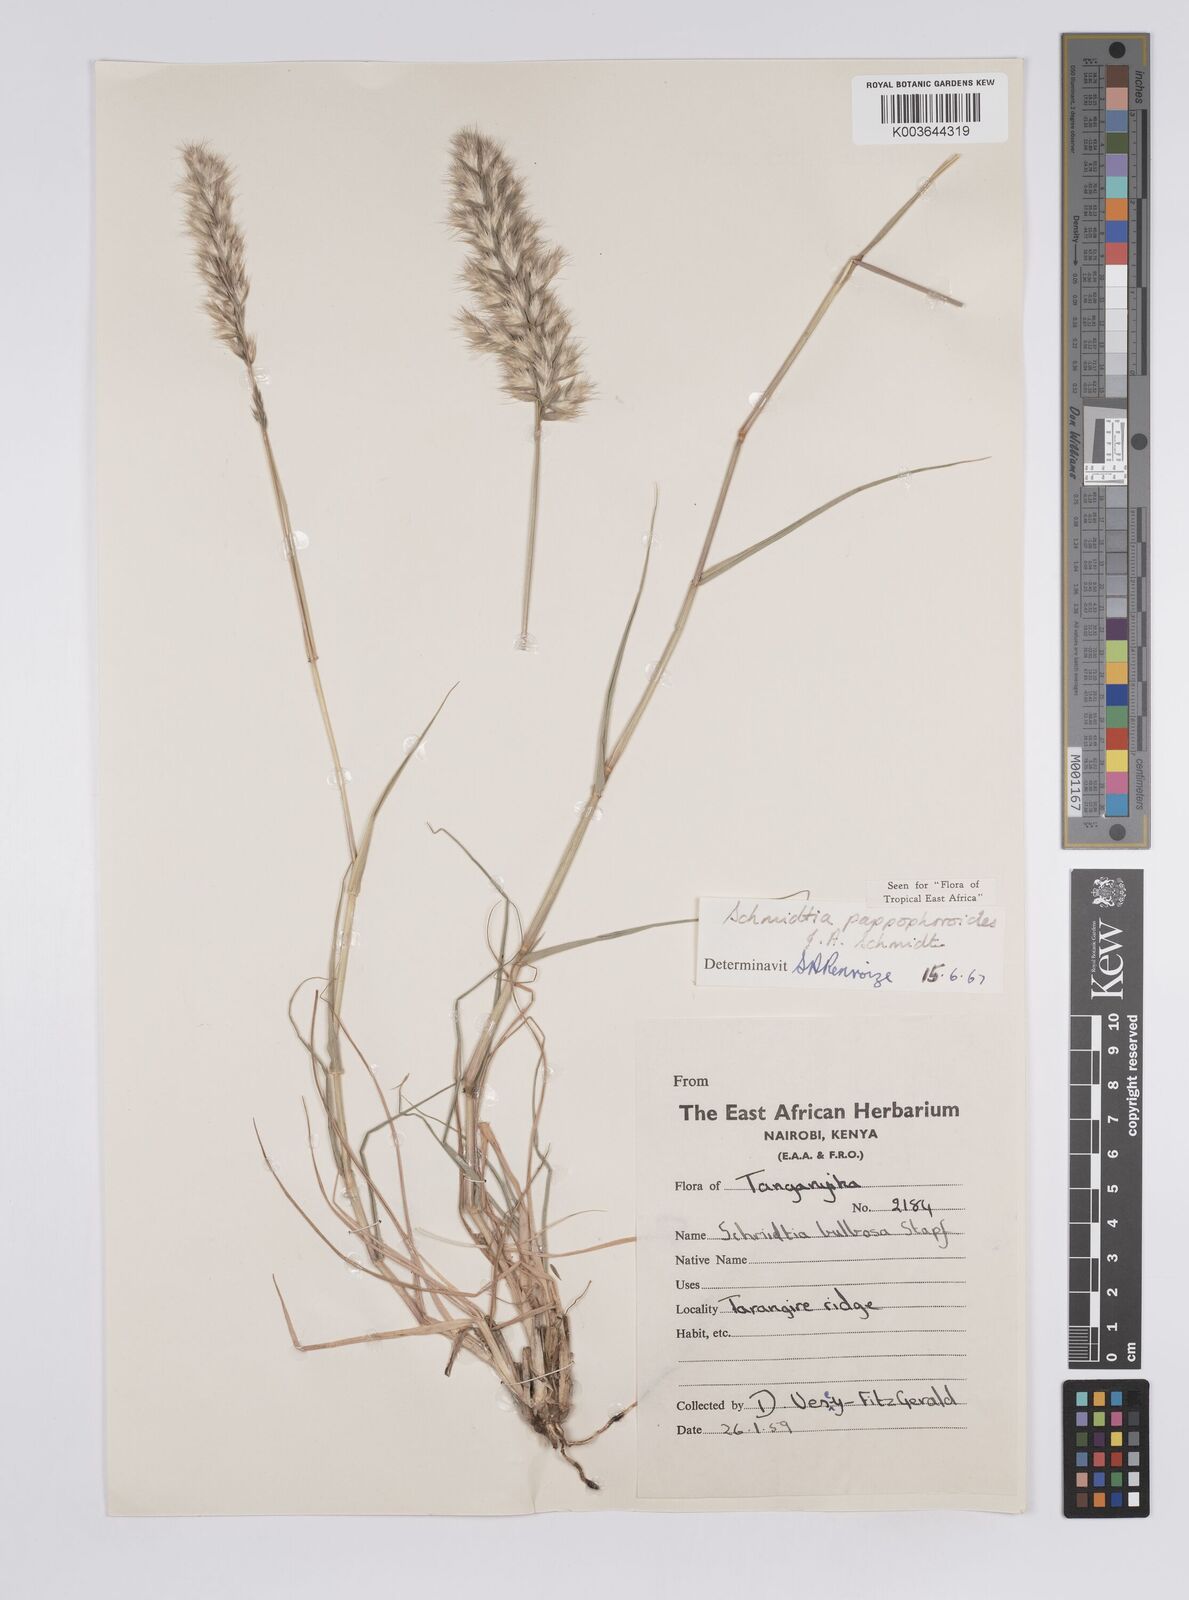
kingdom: Plantae
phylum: Tracheophyta
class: Liliopsida
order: Poales
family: Poaceae
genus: Schmidtia
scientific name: Schmidtia pappophoroides
